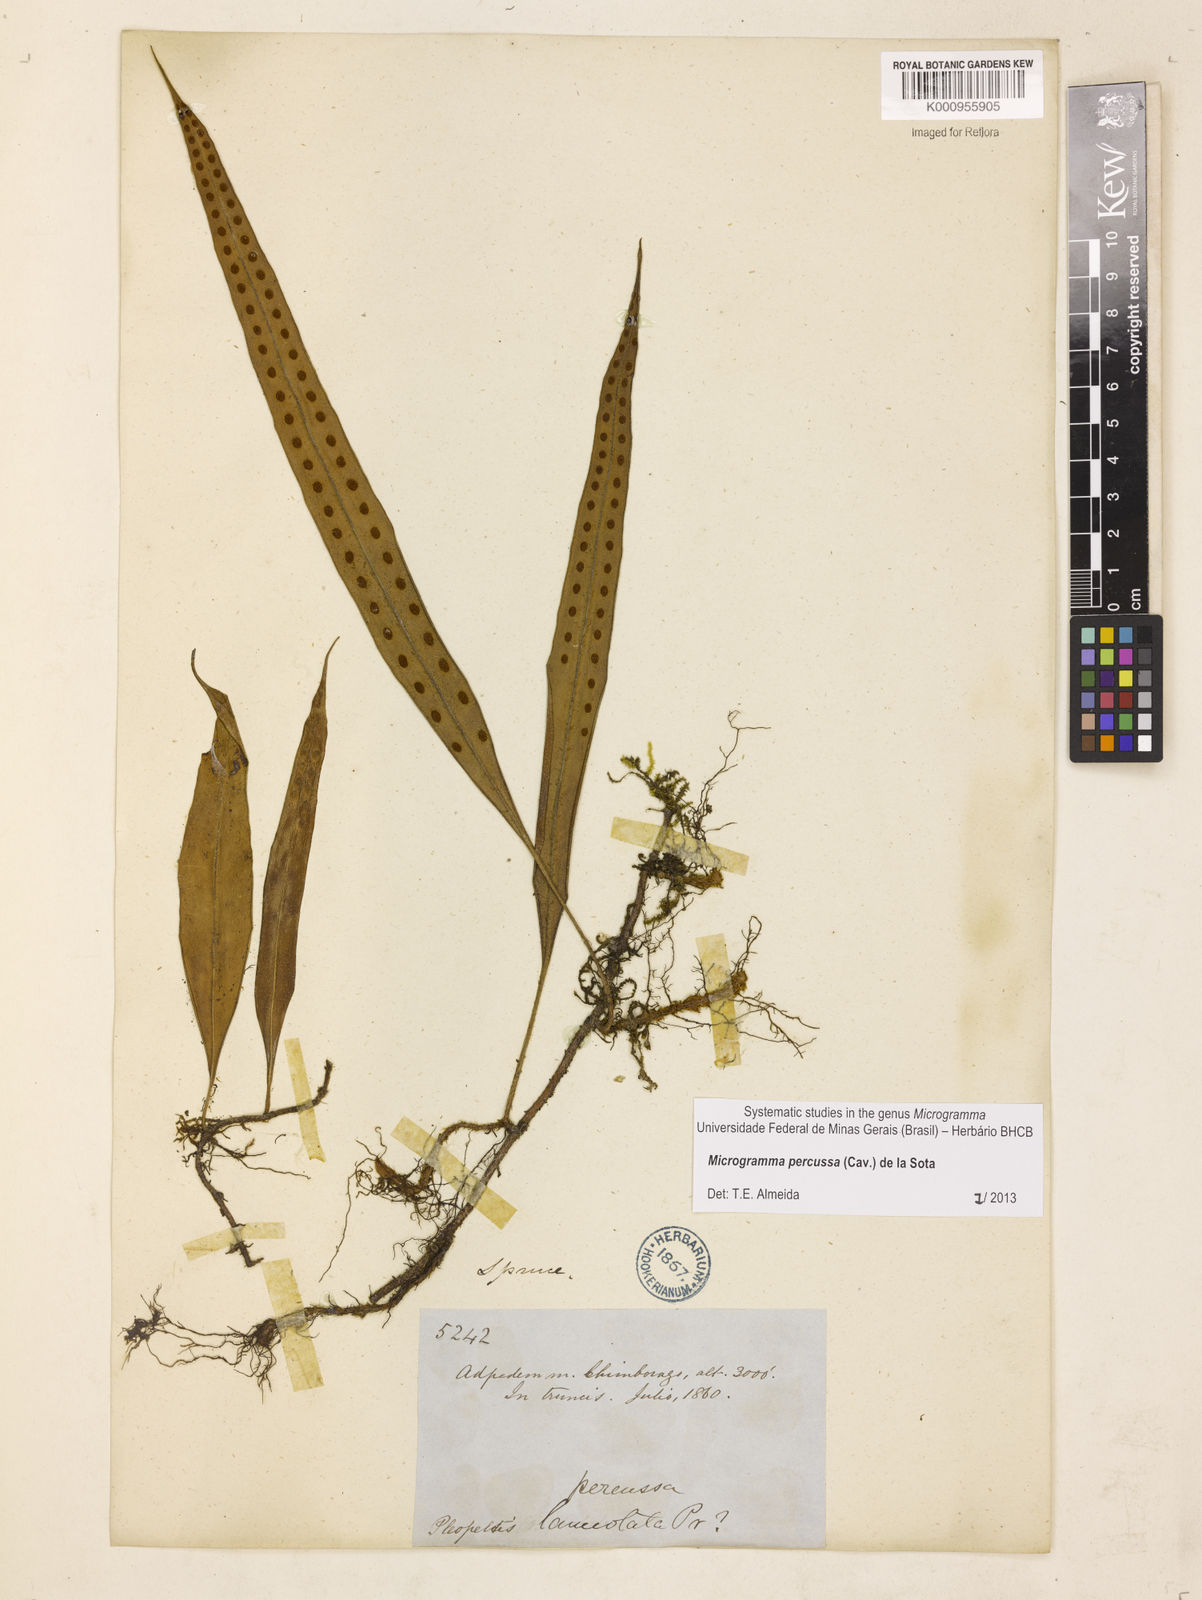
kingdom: Plantae
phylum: Tracheophyta
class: Polypodiopsida
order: Polypodiales
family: Polypodiaceae
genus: Microgramma
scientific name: Microgramma percussa
